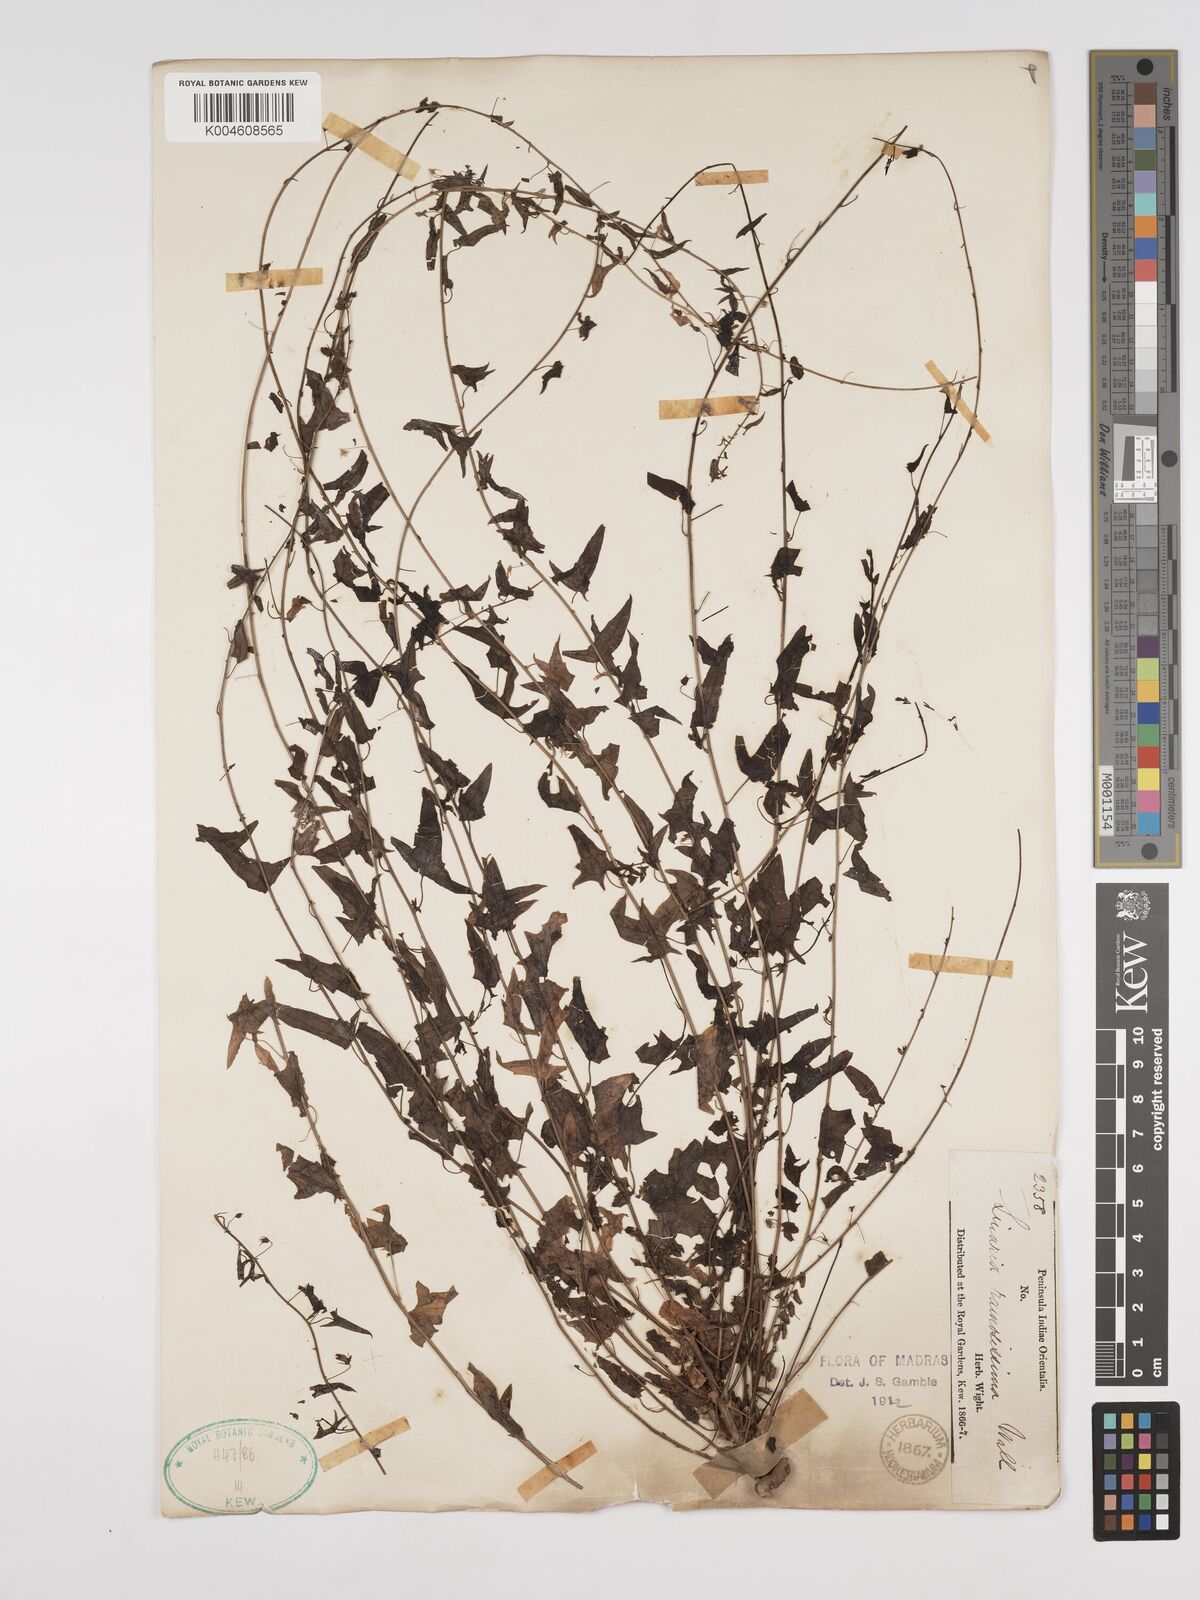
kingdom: Plantae
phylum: Tracheophyta
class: Magnoliopsida
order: Lamiales
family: Plantaginaceae
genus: Nanorrhinum
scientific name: Nanorrhinum ramosissimum
